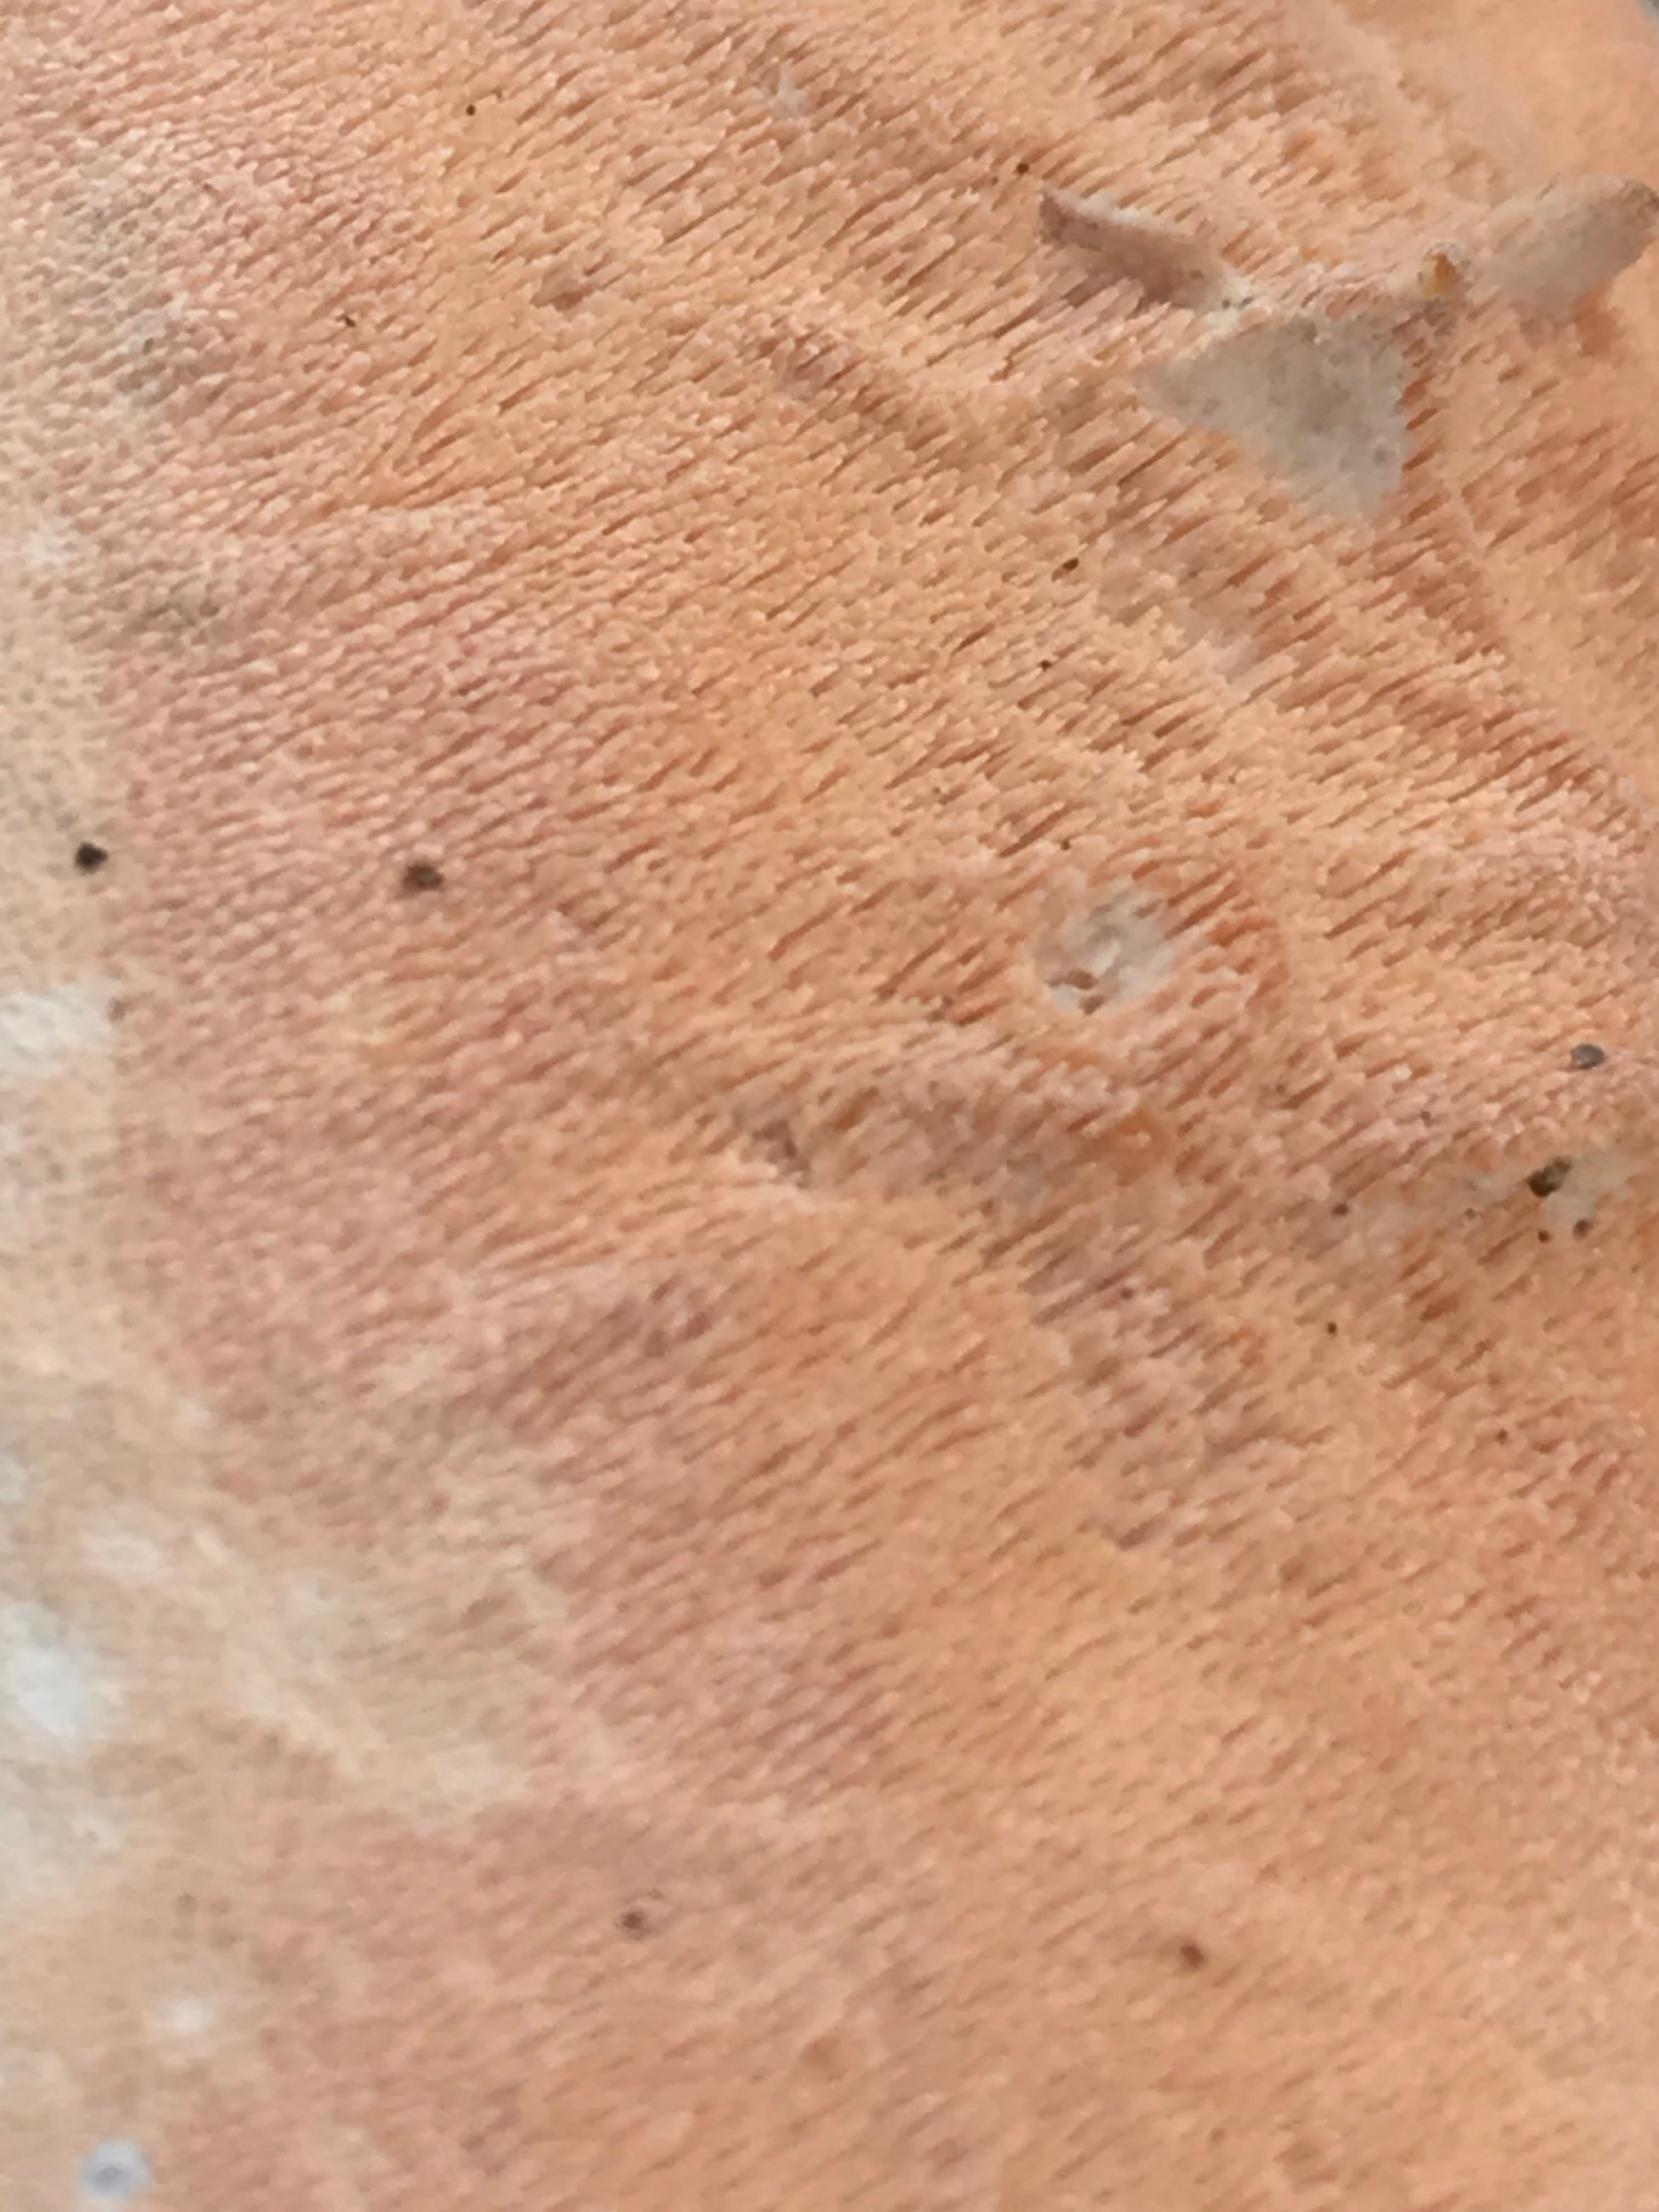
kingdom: Fungi
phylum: Basidiomycota
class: Agaricomycetes
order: Polyporales
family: Steccherinaceae
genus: Steccherinum
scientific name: Steccherinum ochraceum
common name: almindelig skønpig
